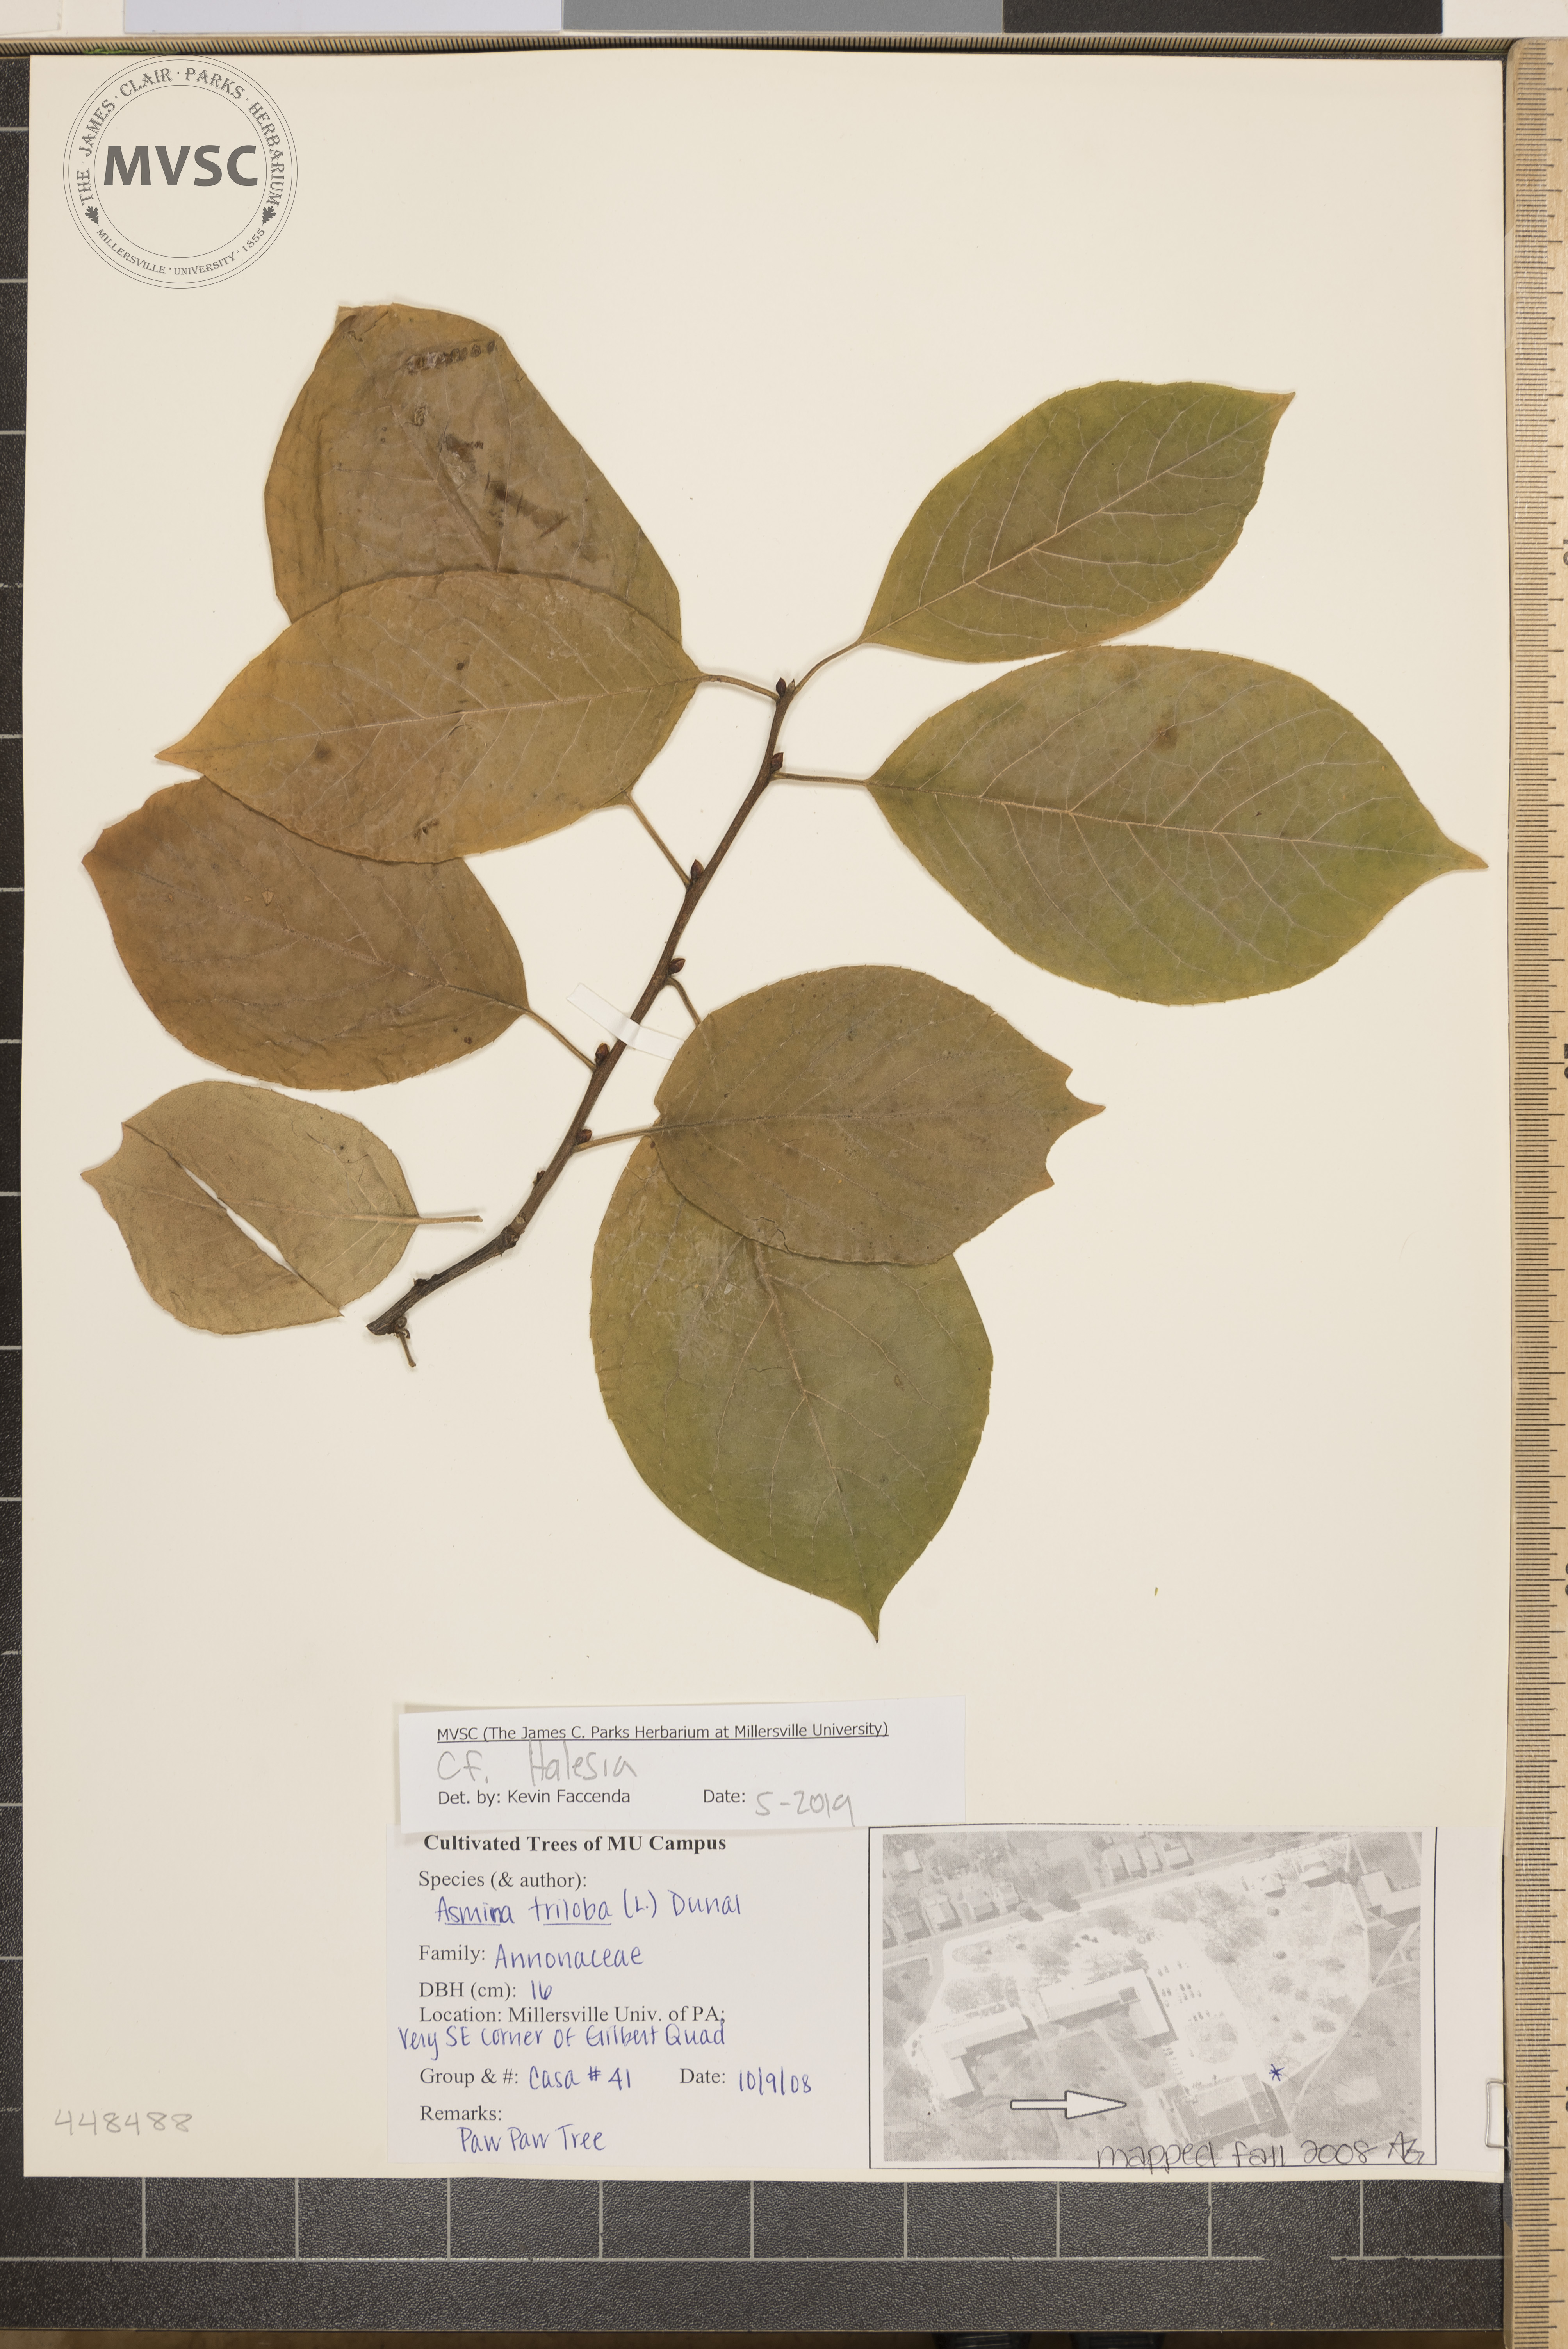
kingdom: Plantae
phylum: Tracheophyta
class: Magnoliopsida
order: Ericales
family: Styracaceae
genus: Halesia
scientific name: Halesia
